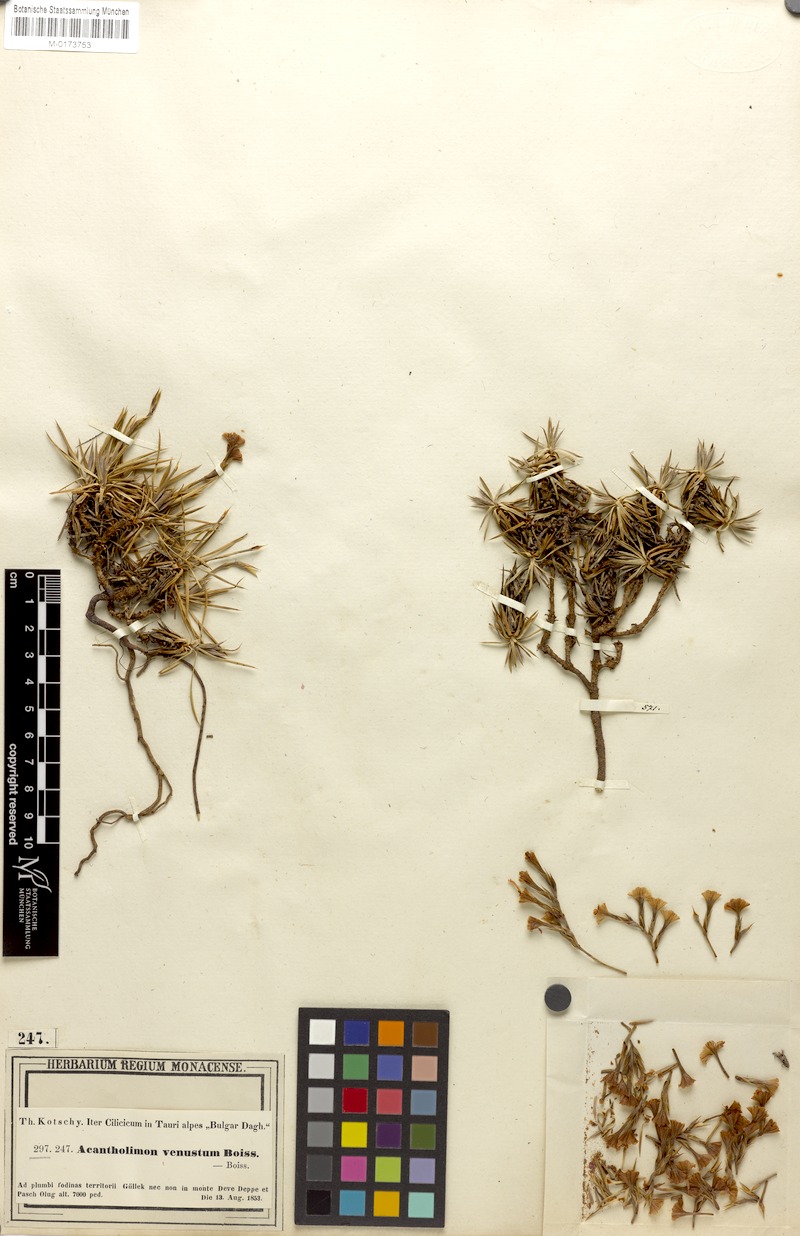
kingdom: Plantae
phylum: Tracheophyta
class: Magnoliopsida
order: Caryophyllales
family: Plumbaginaceae
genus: Acantholimon
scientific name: Acantholimon venustum
